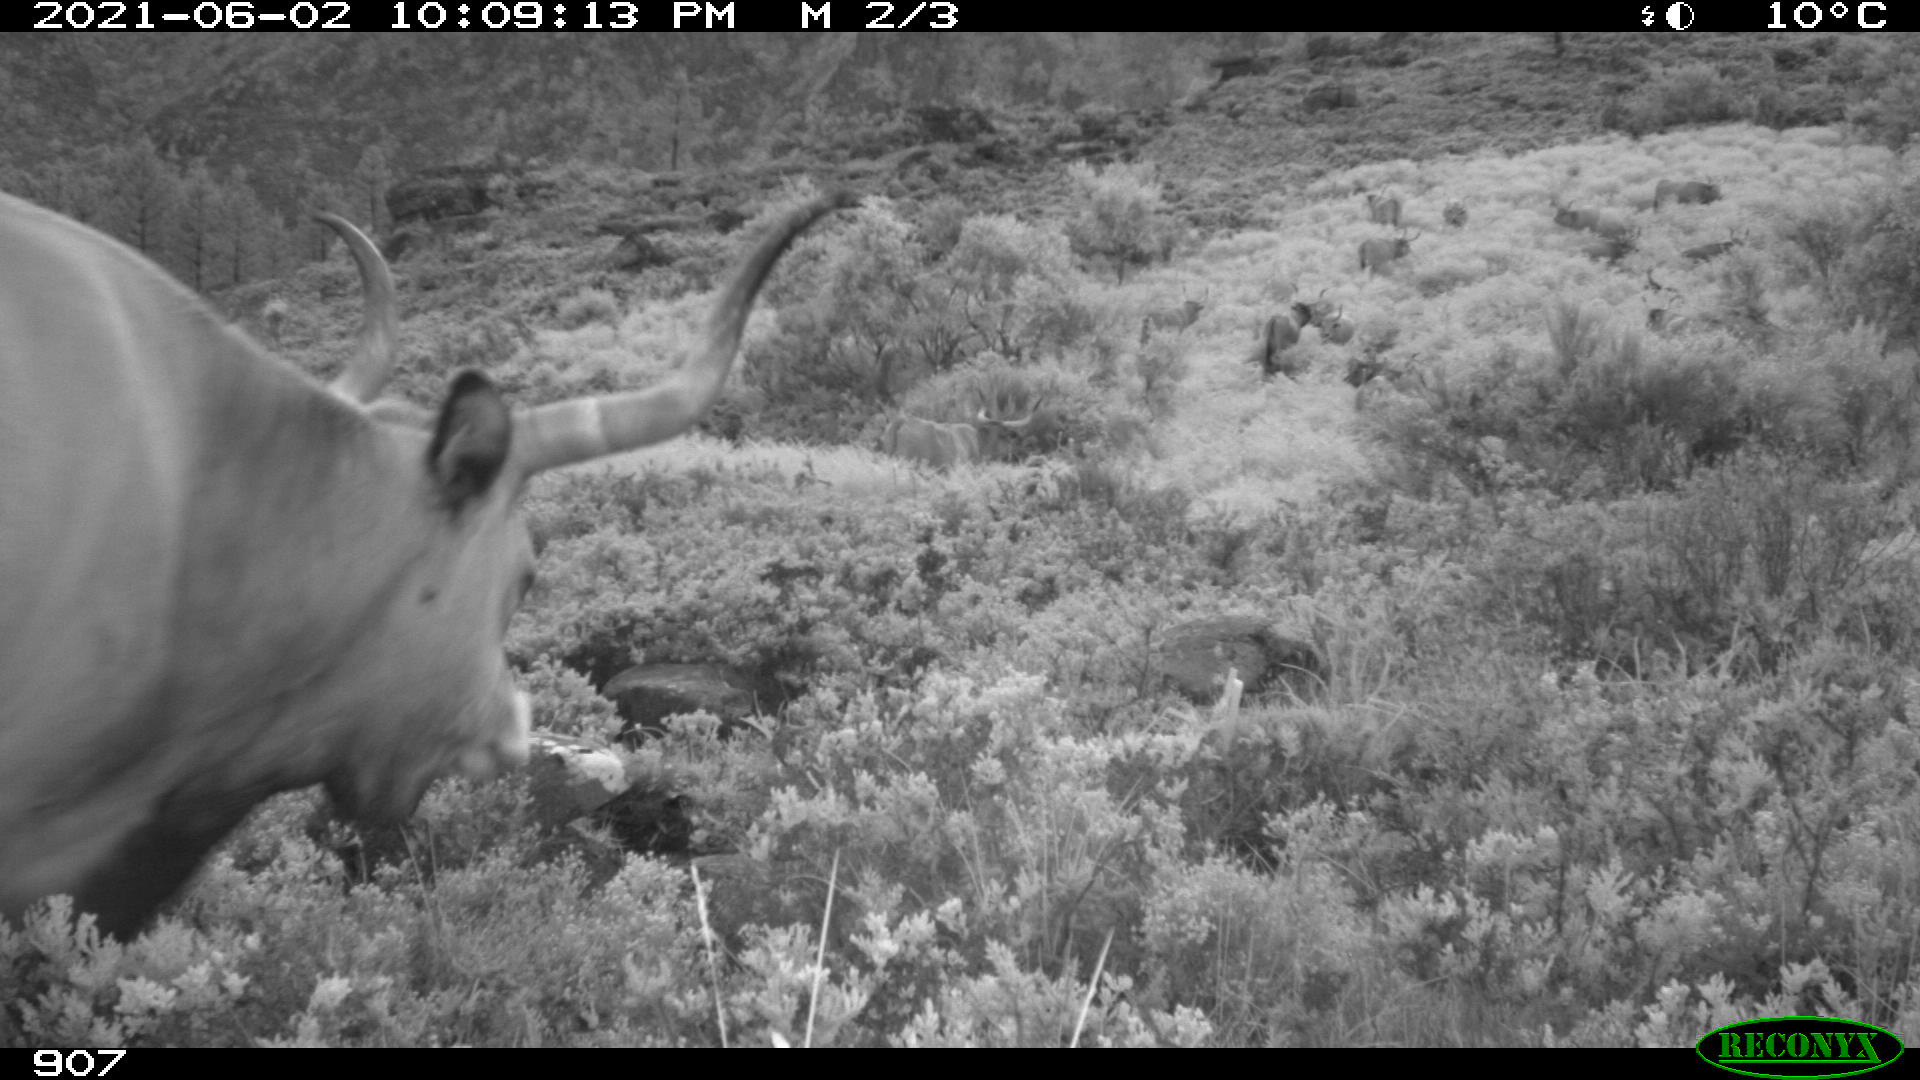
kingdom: Animalia
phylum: Chordata
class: Mammalia
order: Artiodactyla
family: Bovidae
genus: Bos
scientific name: Bos taurus
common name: Domesticated cattle
